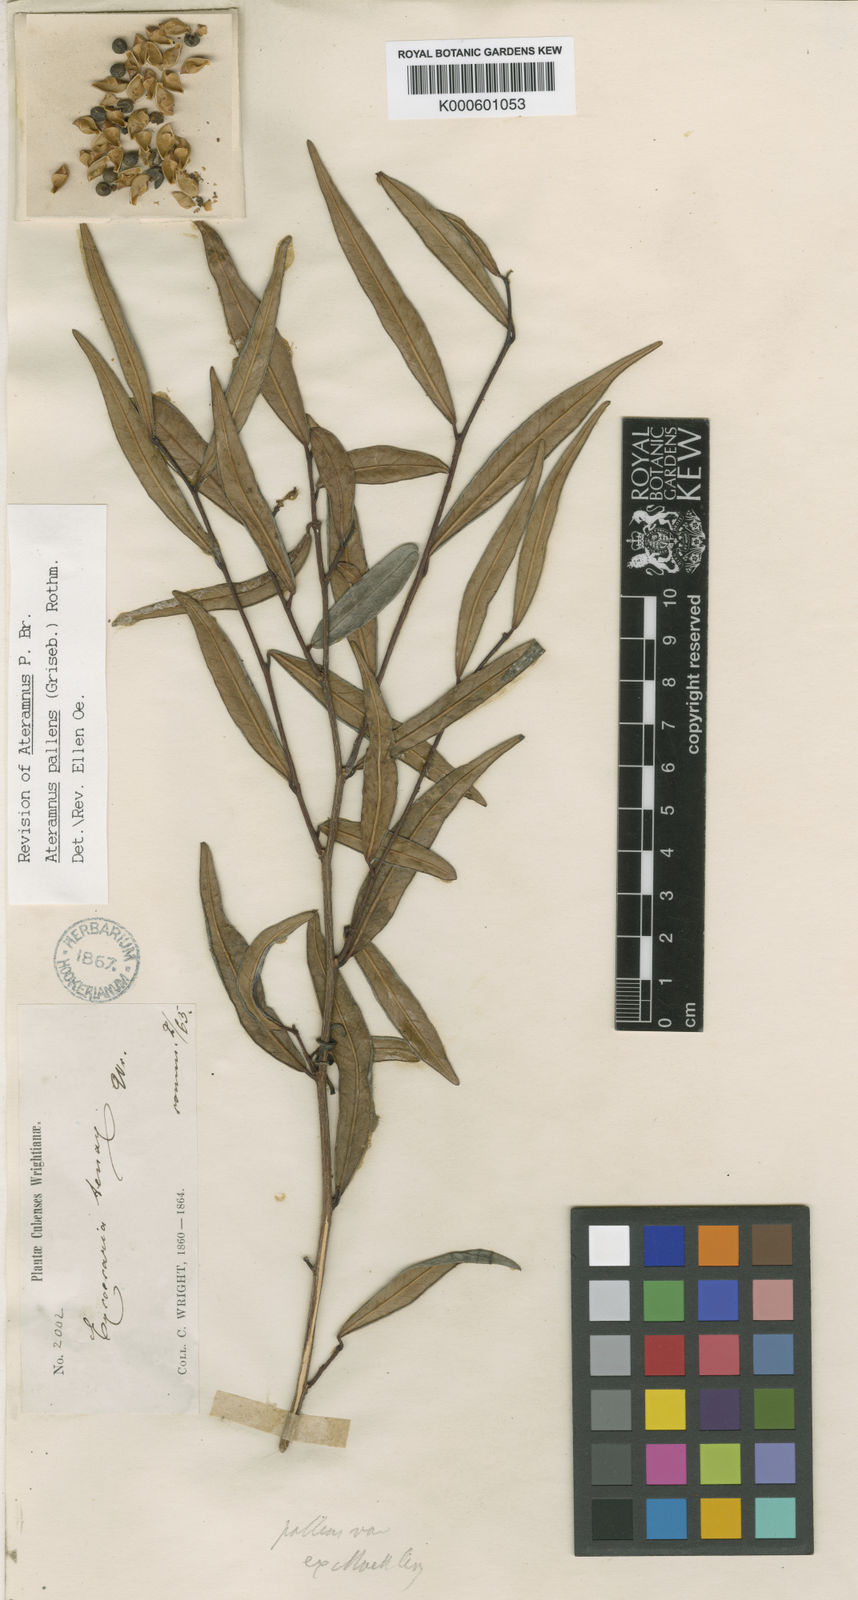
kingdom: Plantae
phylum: Tracheophyta
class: Magnoliopsida
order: Malpighiales
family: Euphorbiaceae
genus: Sebastiania
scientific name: Sebastiania
